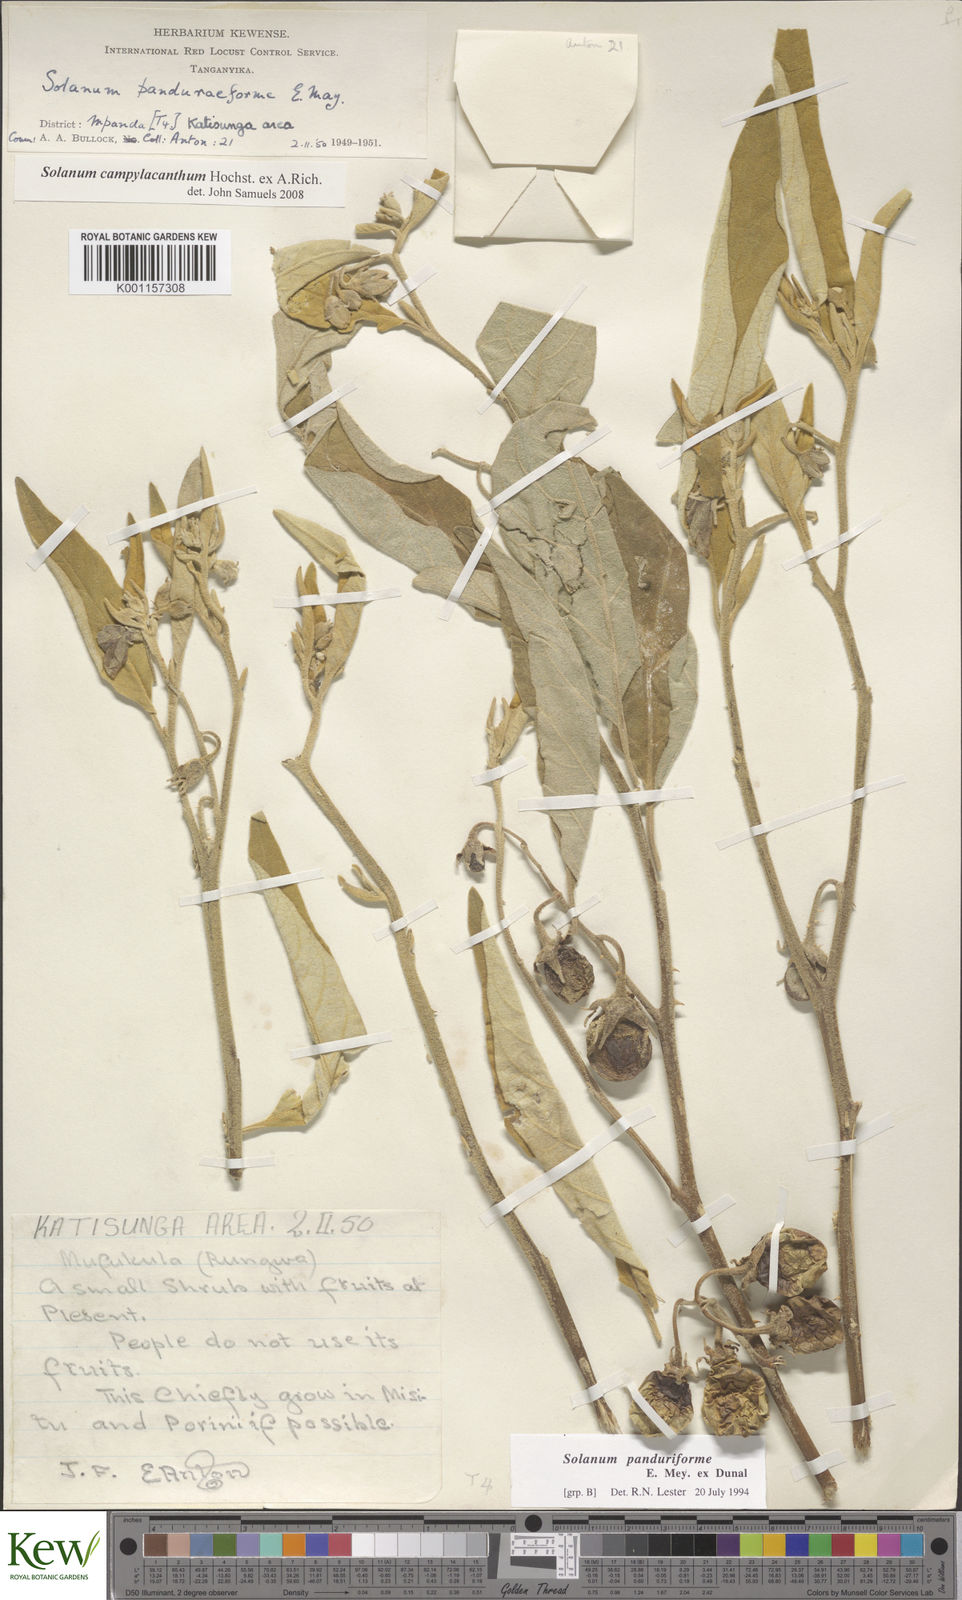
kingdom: Plantae
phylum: Tracheophyta
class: Magnoliopsida
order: Solanales
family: Solanaceae
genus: Solanum
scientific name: Solanum campylacanthum
